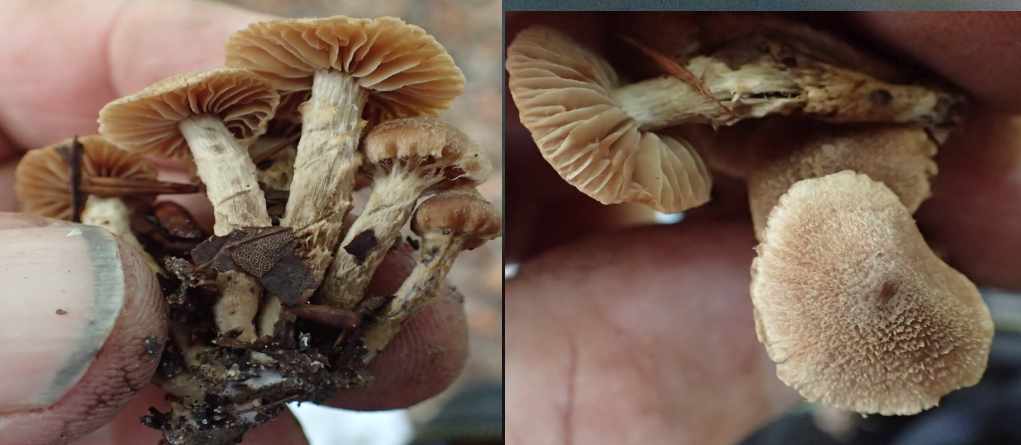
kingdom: Fungi
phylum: Basidiomycota
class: Agaricomycetes
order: Agaricales
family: Cortinariaceae
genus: Cortinarius
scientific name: Cortinarius
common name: pelargonie-slørhat
